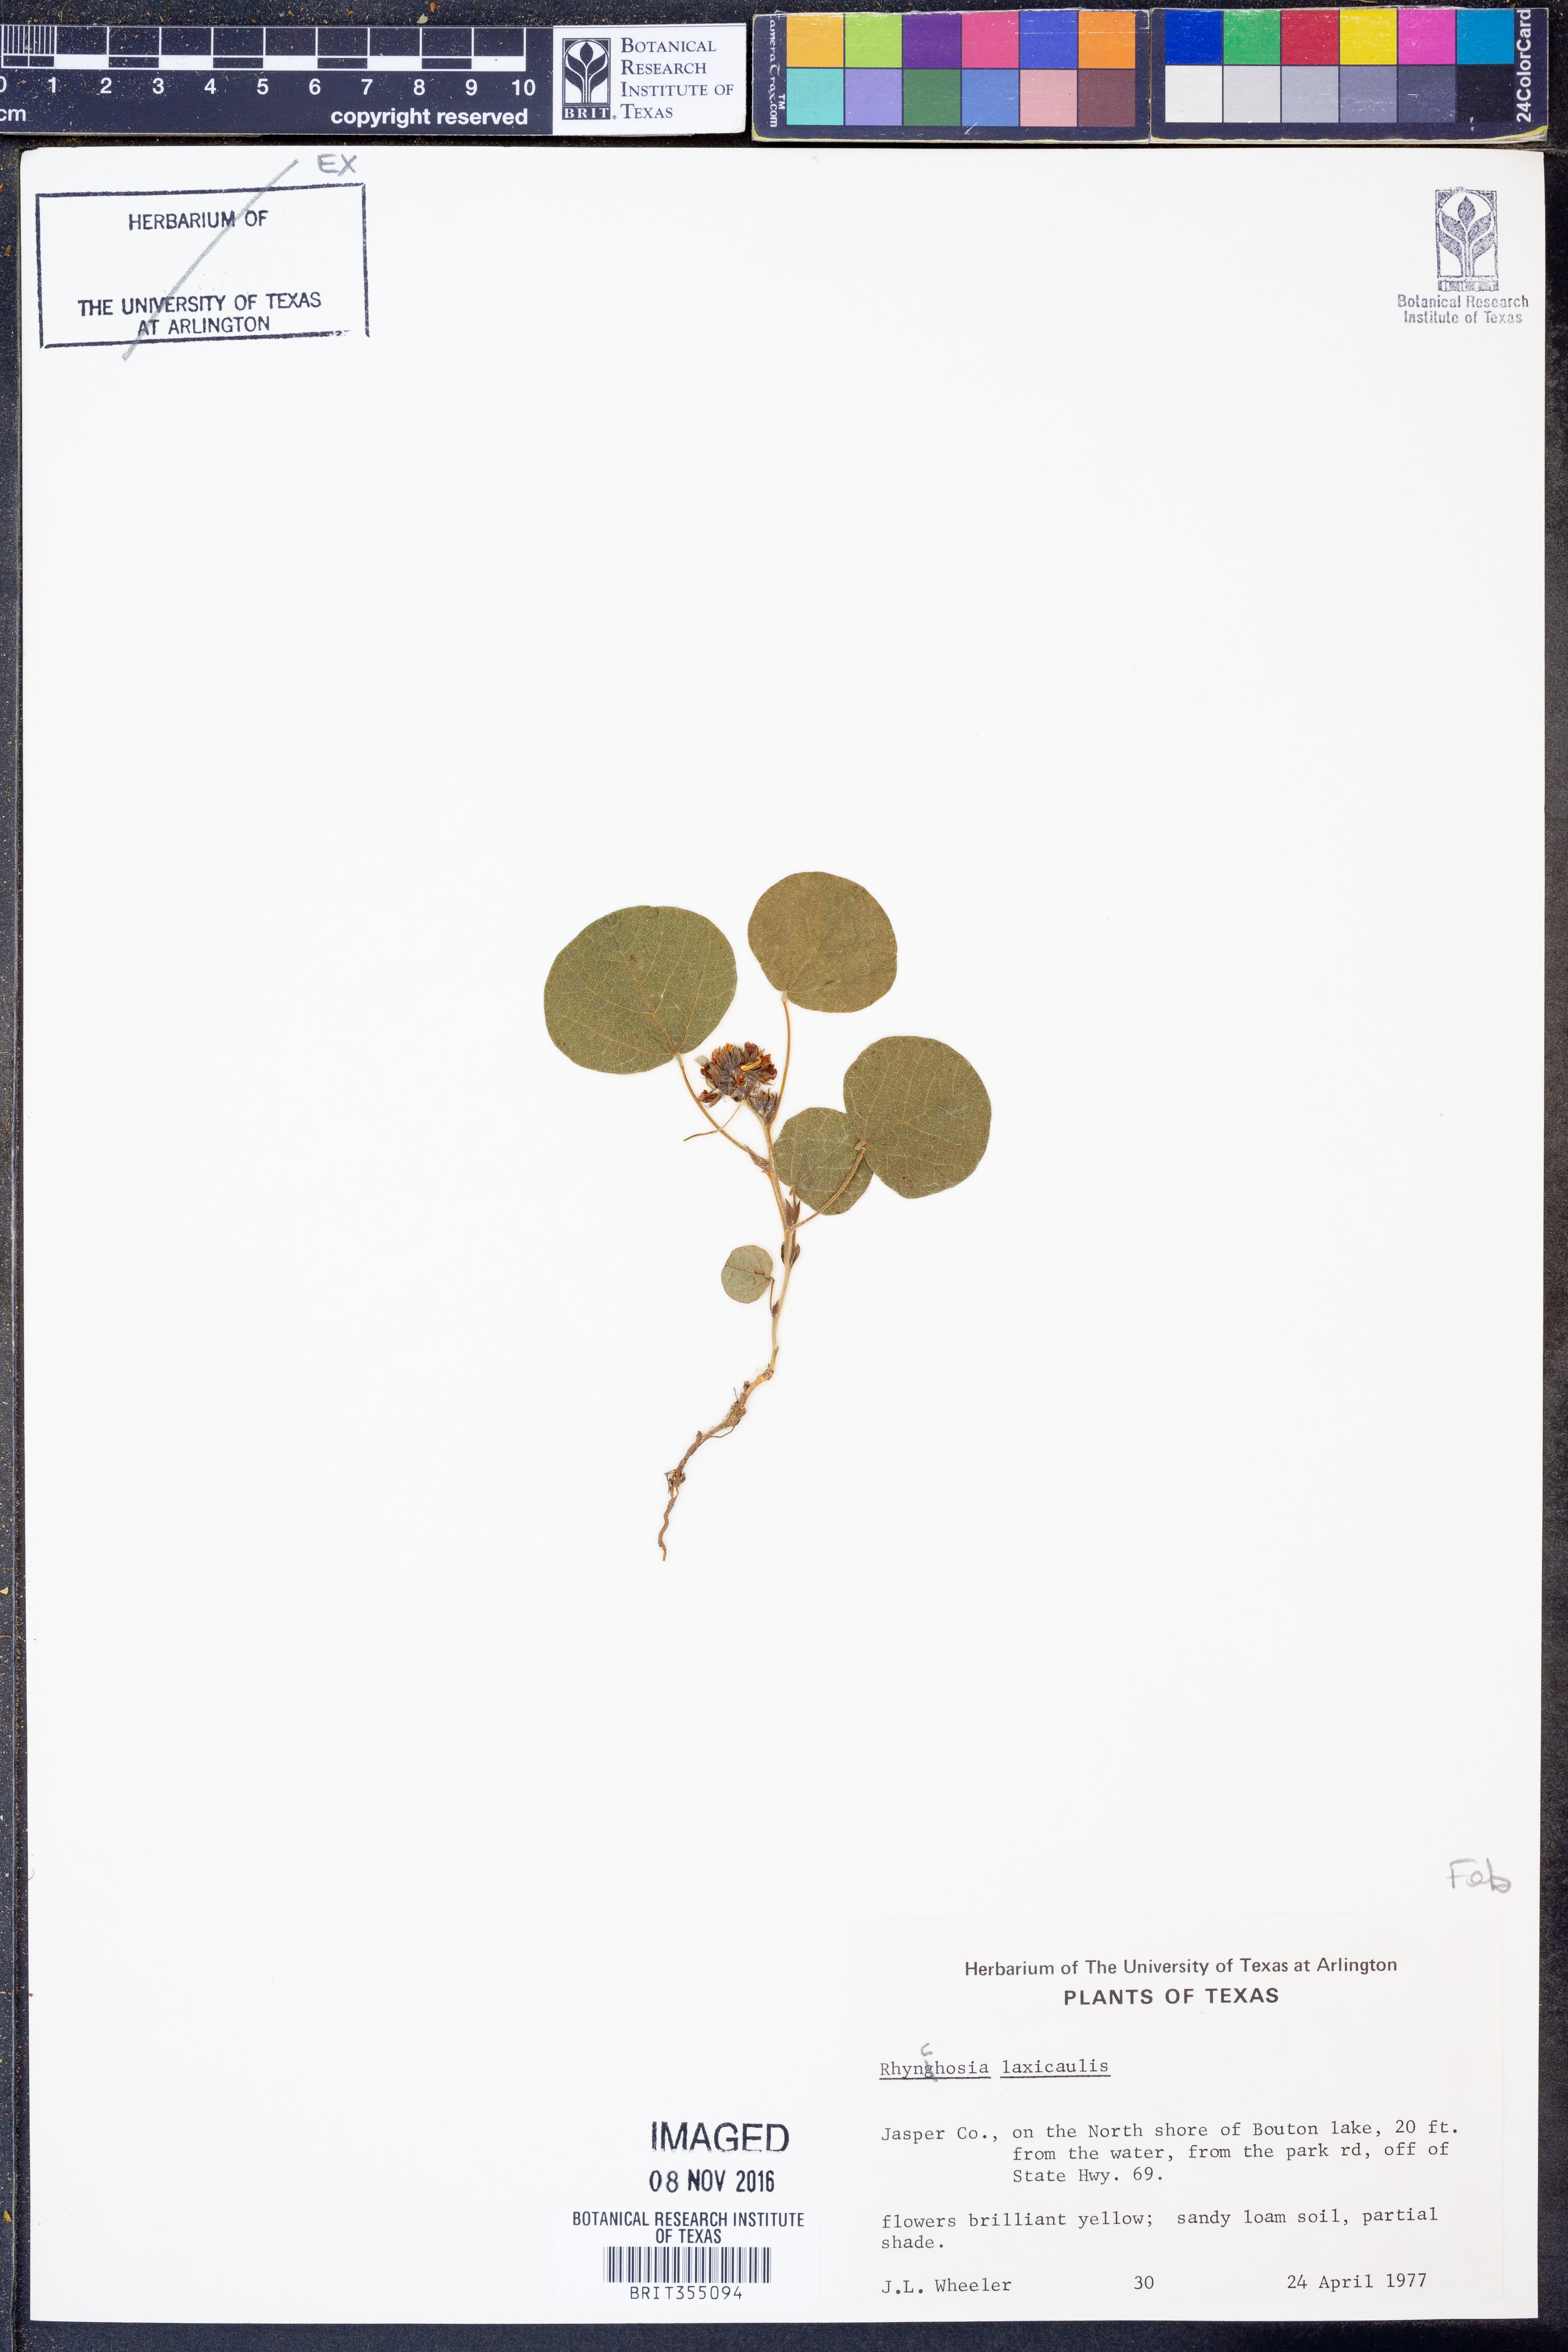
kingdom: Plantae
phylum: Tracheophyta
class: Magnoliopsida
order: Fabales
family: Fabaceae
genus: Rhynchosia
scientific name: Rhynchosia
